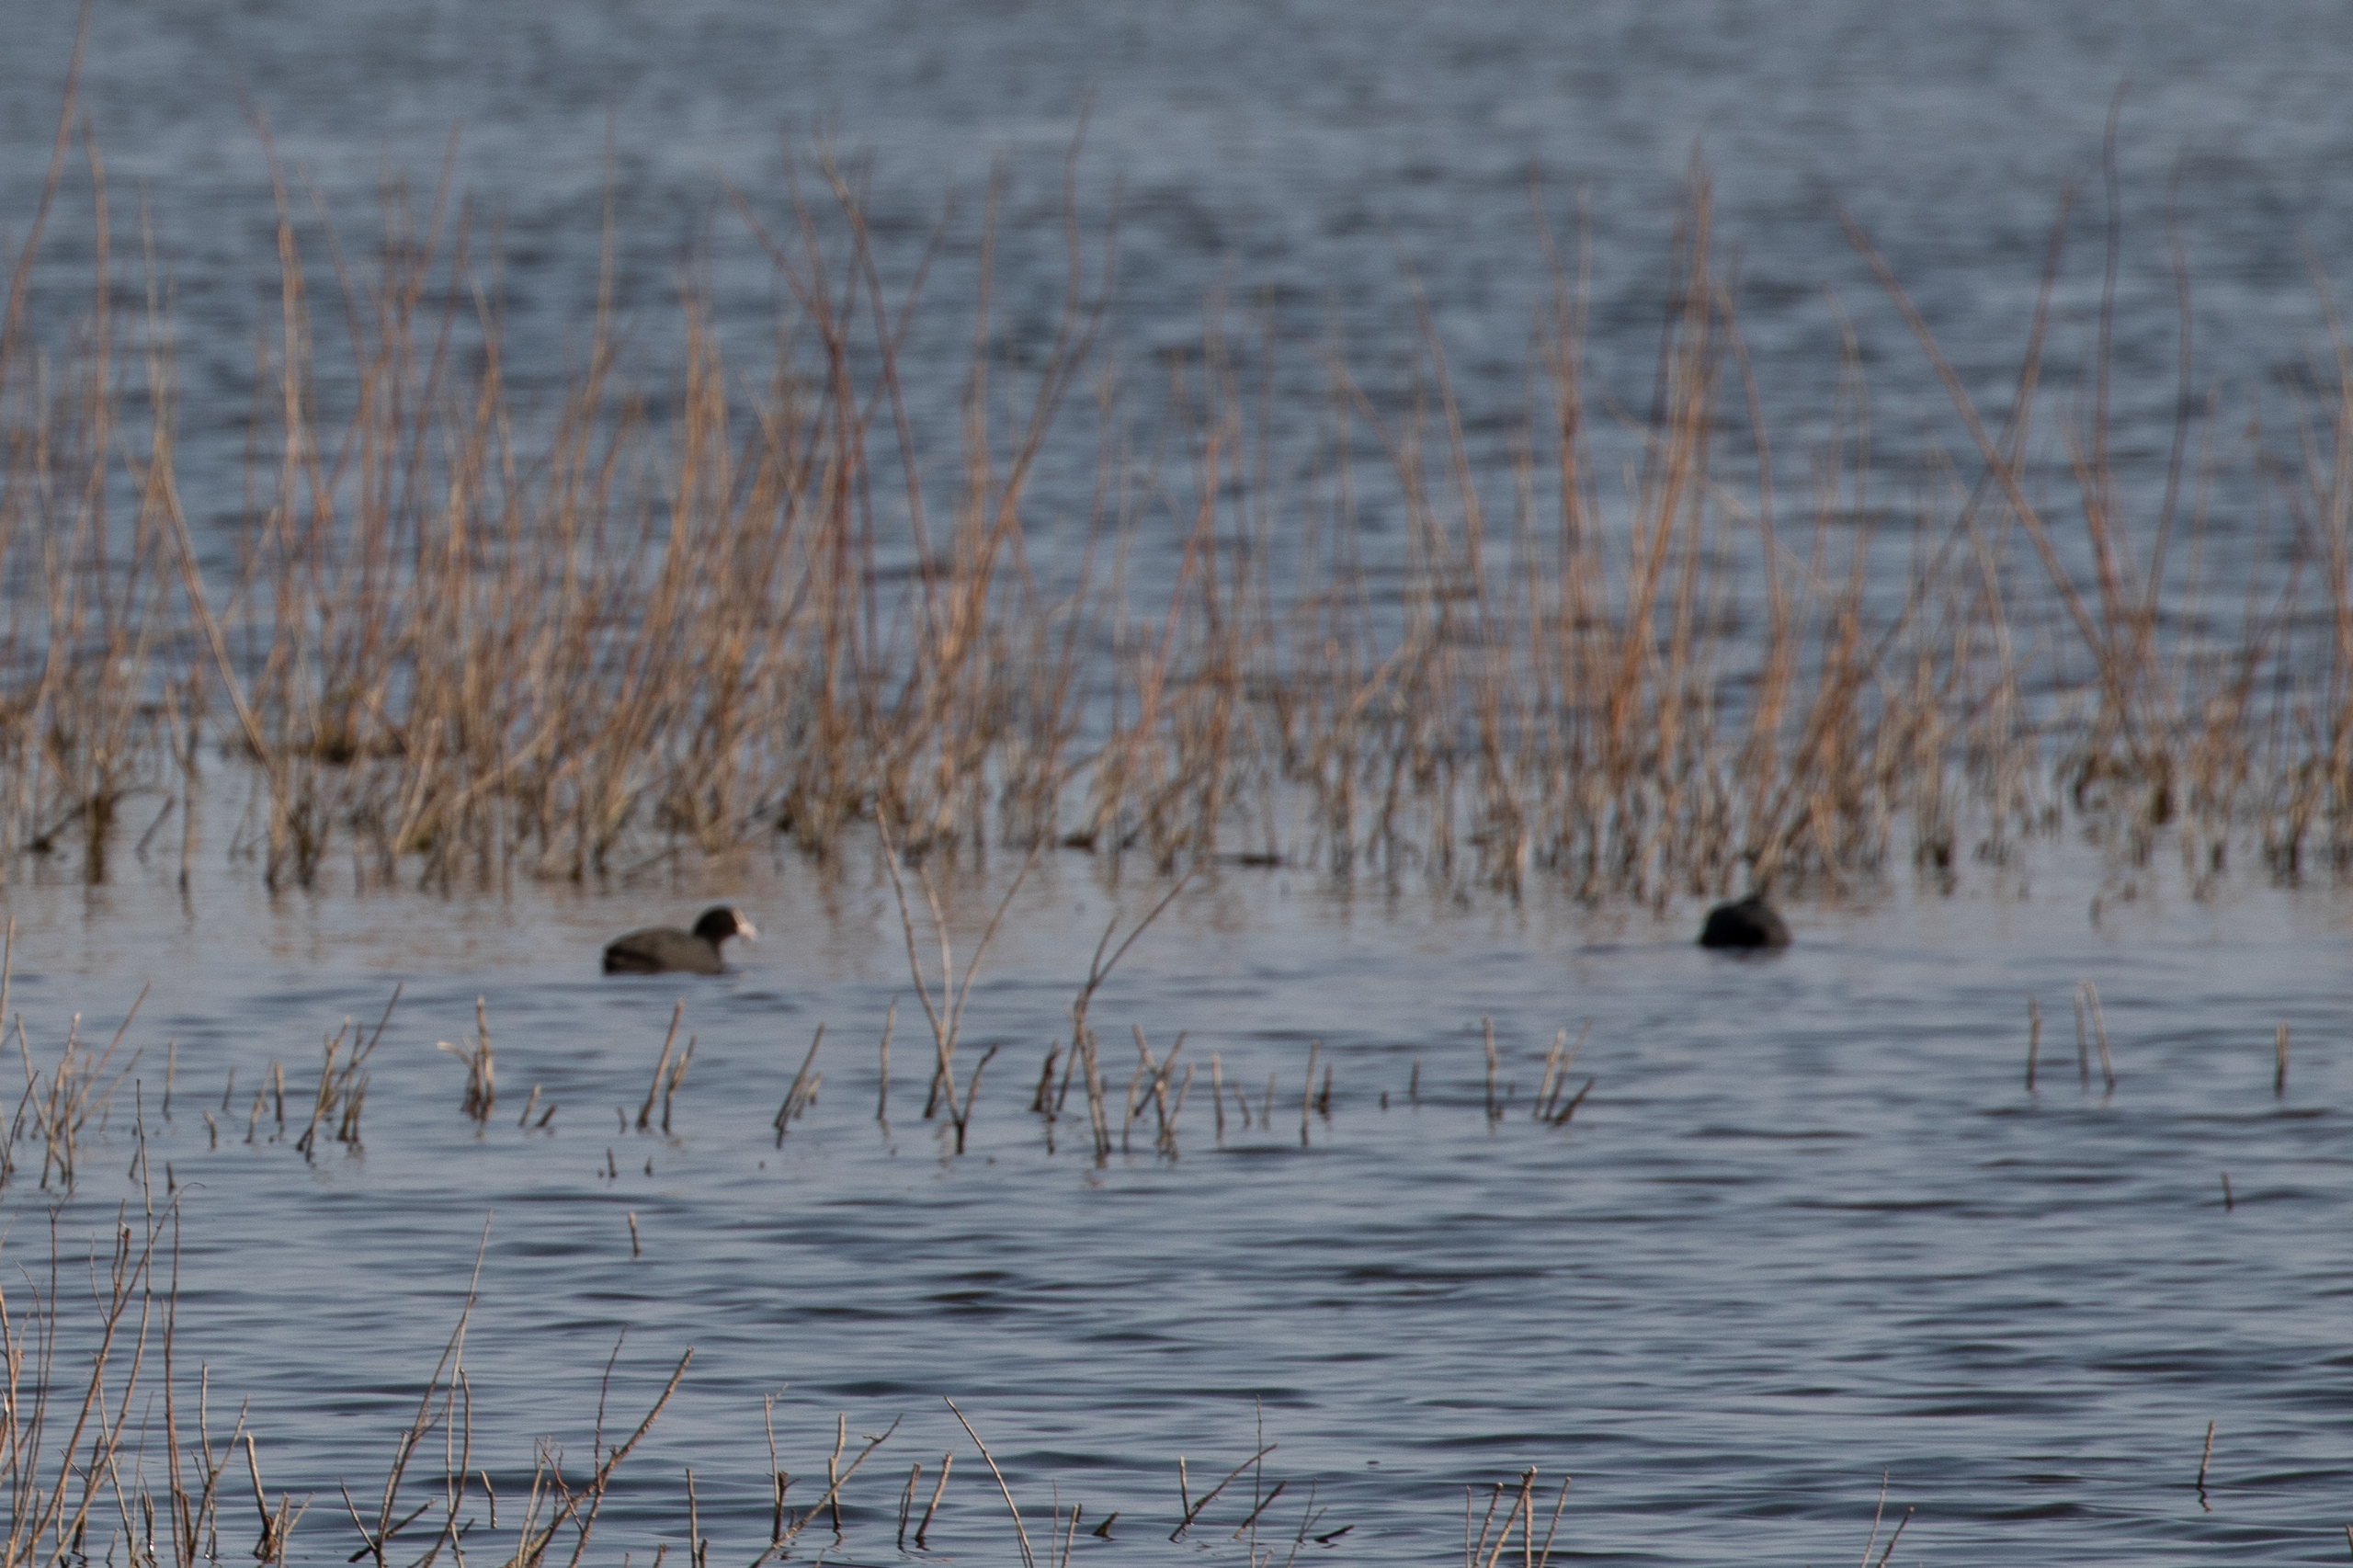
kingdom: Animalia
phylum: Chordata
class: Aves
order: Gruiformes
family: Rallidae
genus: Fulica
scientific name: Fulica atra
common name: Blishøne
